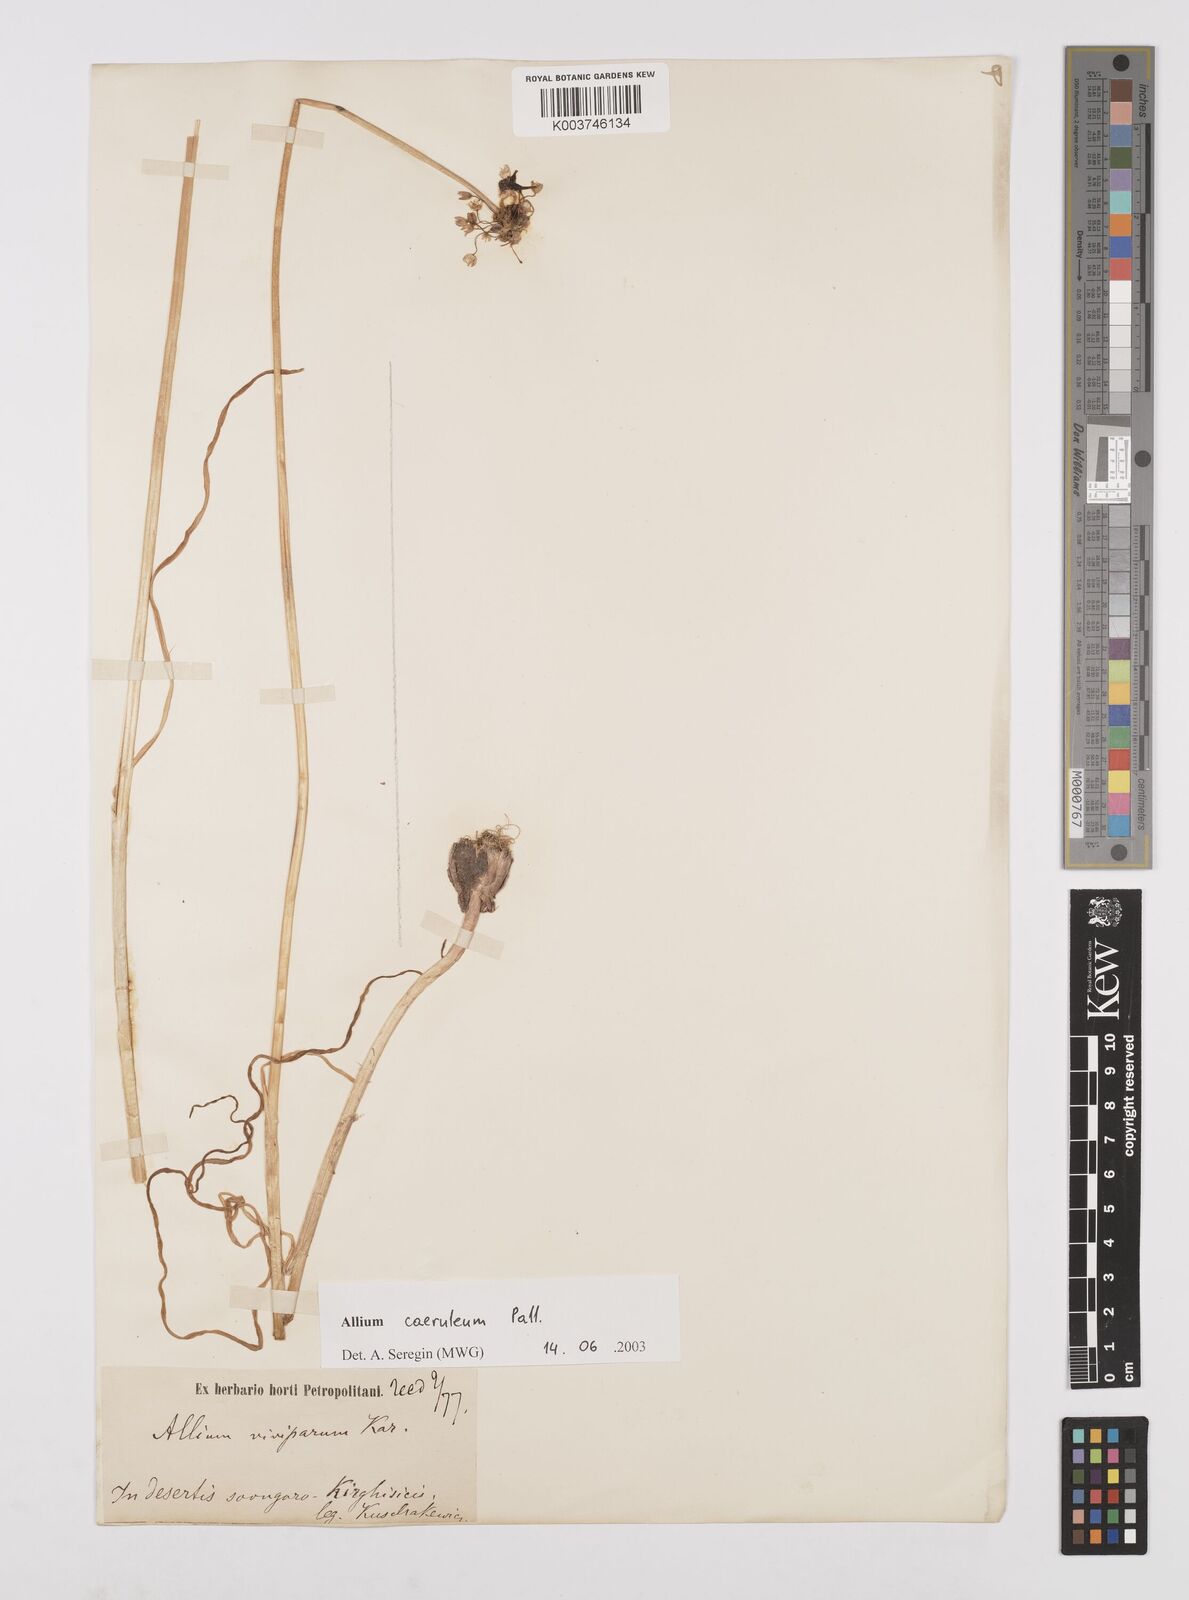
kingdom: Plantae
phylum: Tracheophyta
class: Liliopsida
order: Asparagales
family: Amaryllidaceae
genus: Allium
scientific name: Allium caeruleum
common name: Blue-of-the-heavens
